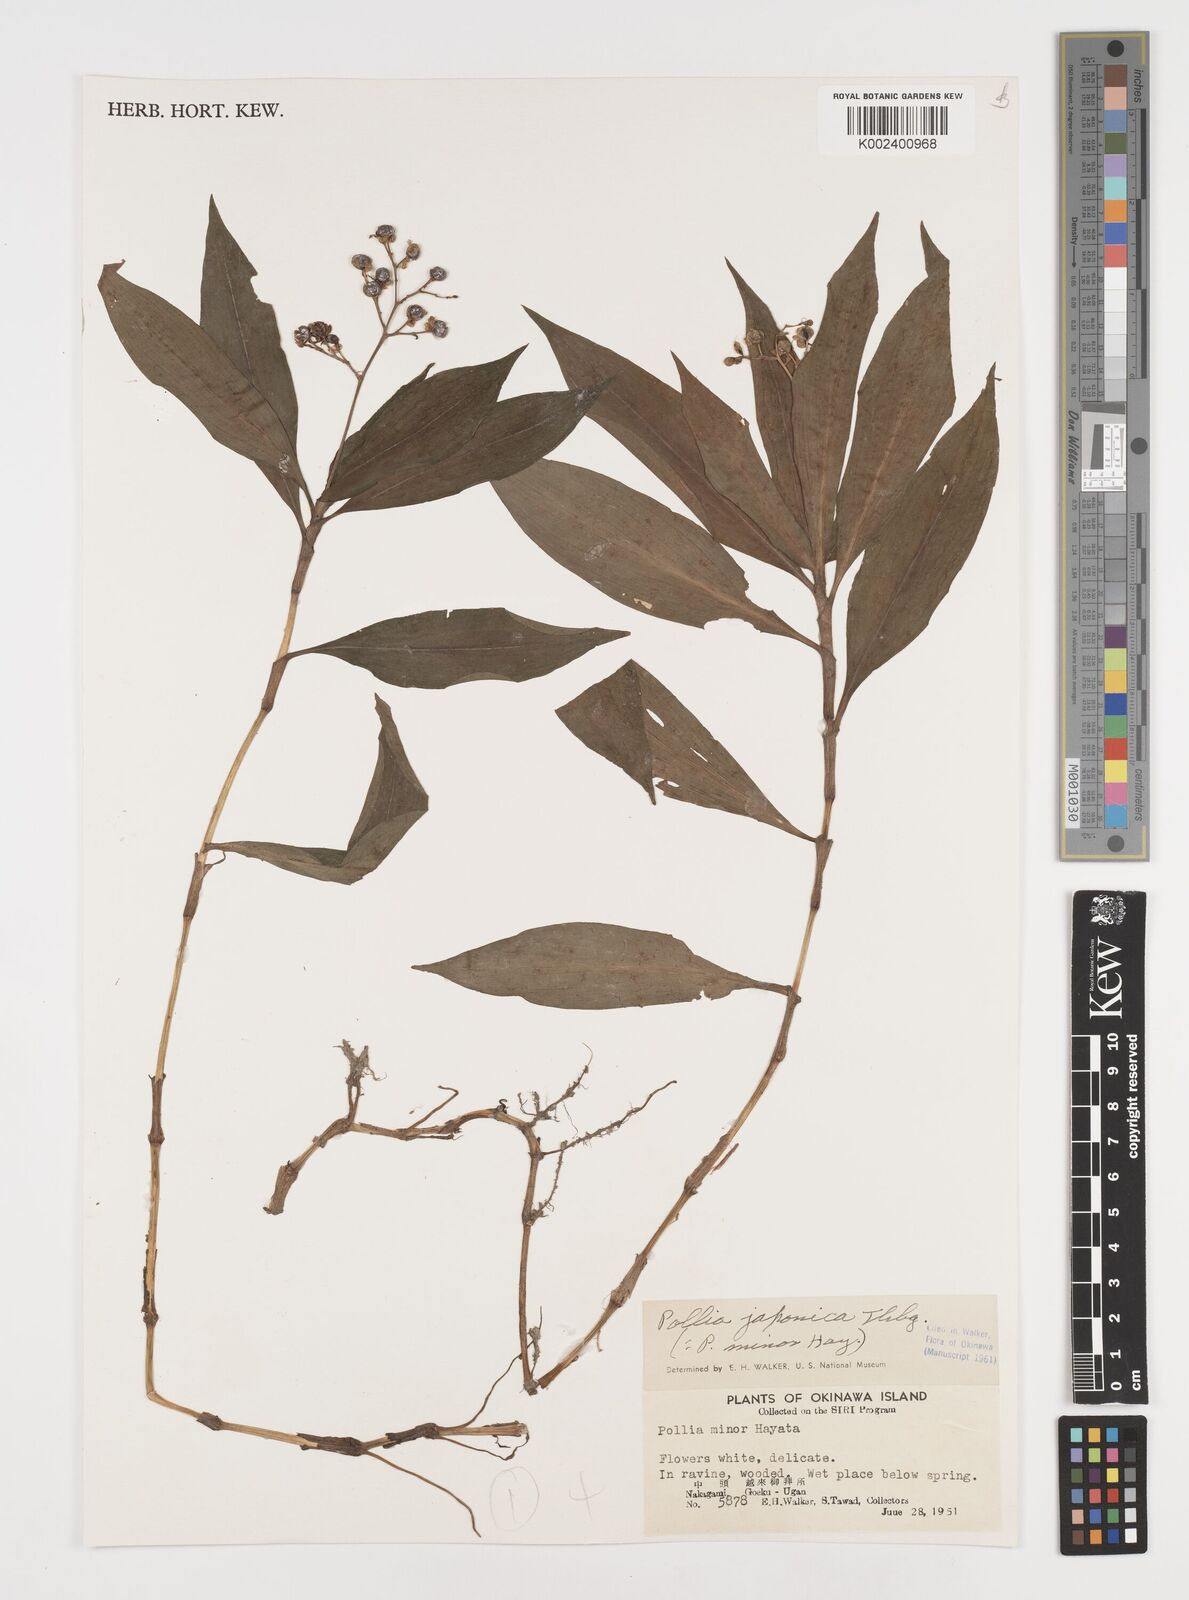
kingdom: Plantae
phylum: Tracheophyta
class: Liliopsida
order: Commelinales
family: Commelinaceae
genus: Pollia
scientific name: Pollia japonica
